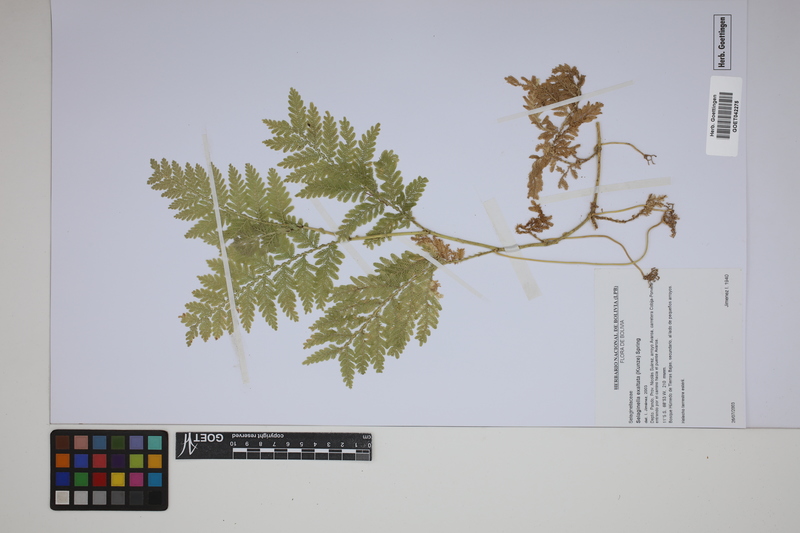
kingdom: Plantae
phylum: Tracheophyta
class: Lycopodiopsida
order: Selaginellales
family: Selaginellaceae
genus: Selaginella
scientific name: Selaginella exaltata
